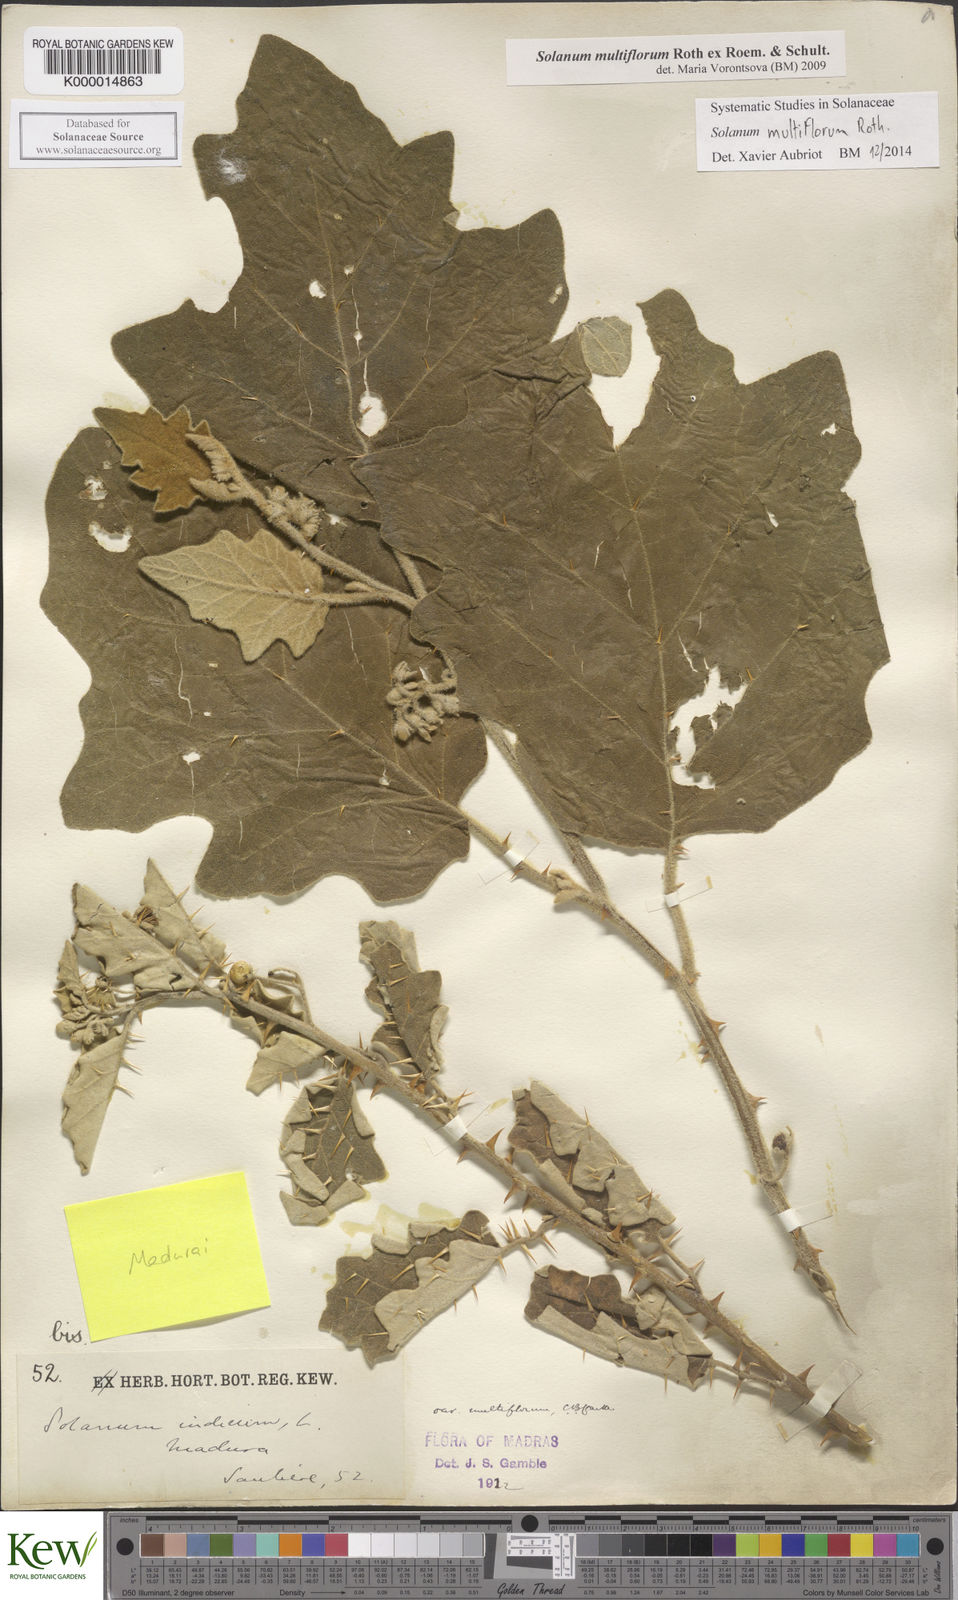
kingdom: Plantae
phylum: Tracheophyta
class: Magnoliopsida
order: Solanales
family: Solanaceae
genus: Solanum
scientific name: Solanum multiflorum
